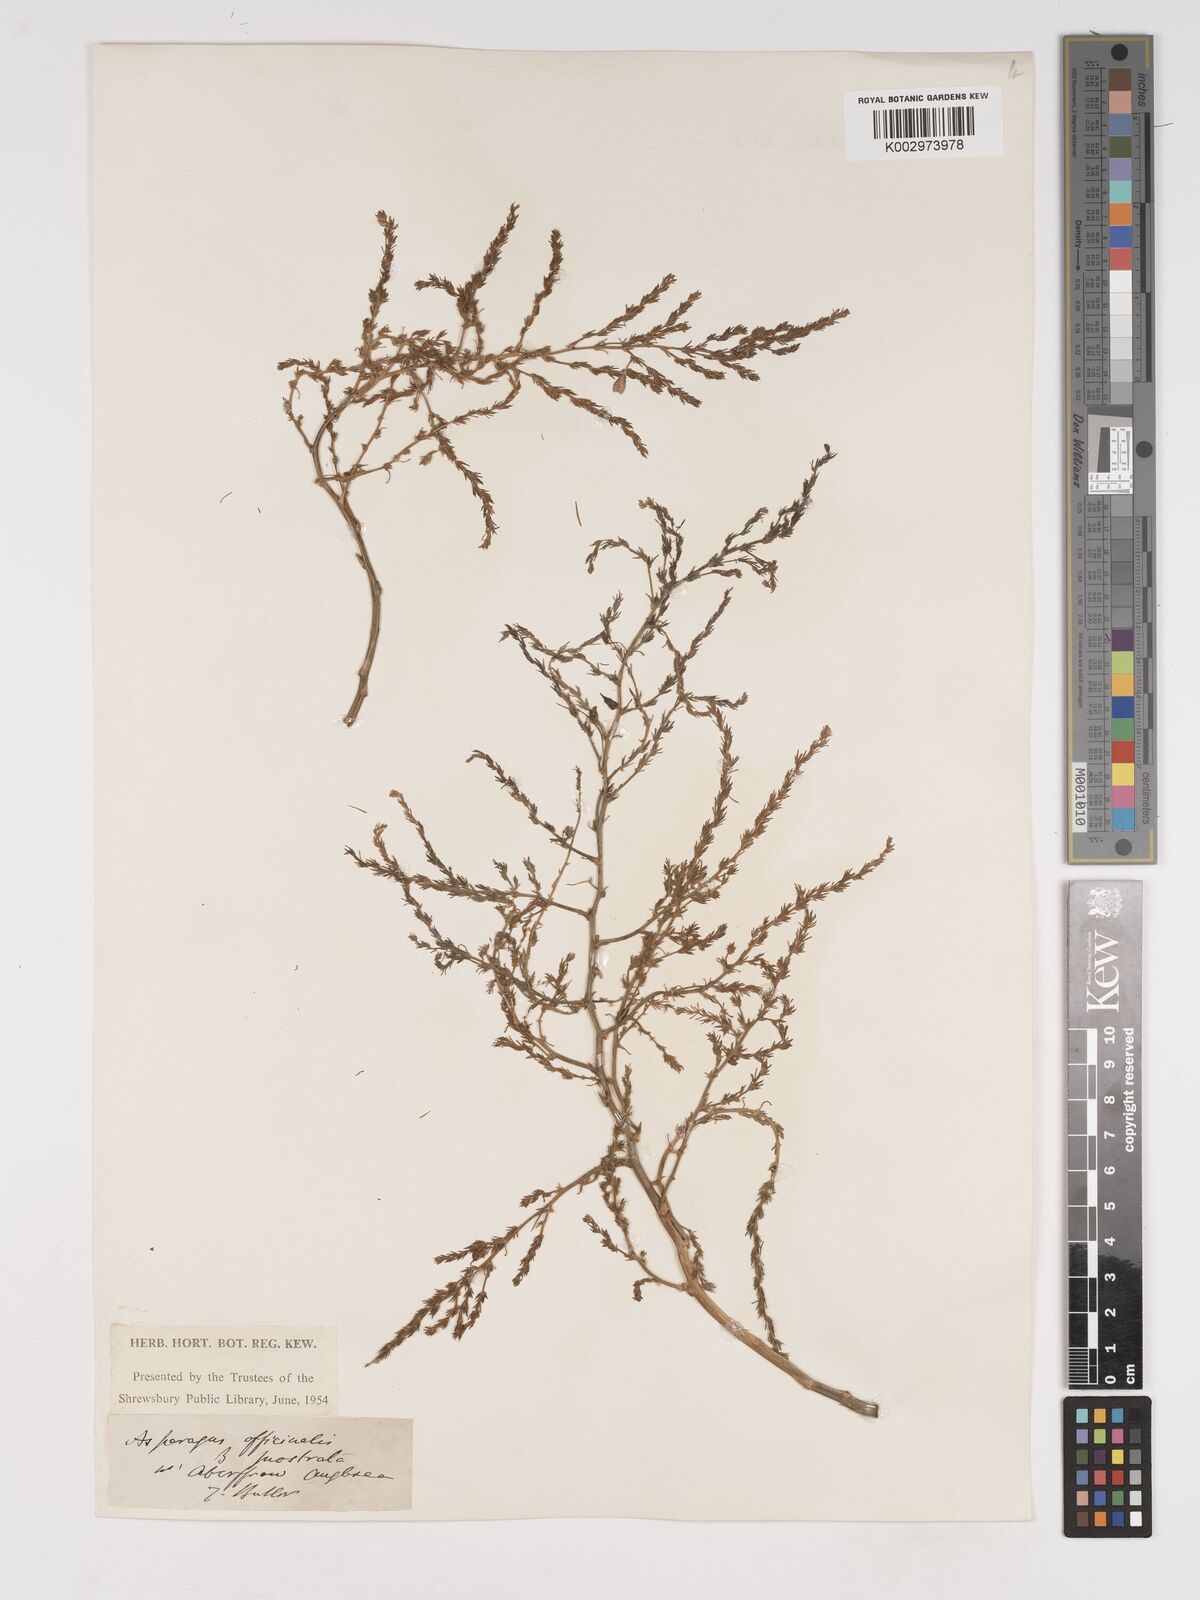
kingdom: Plantae
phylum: Tracheophyta
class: Liliopsida
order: Asparagales
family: Asparagaceae
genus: Asparagus
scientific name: Asparagus maritimus
